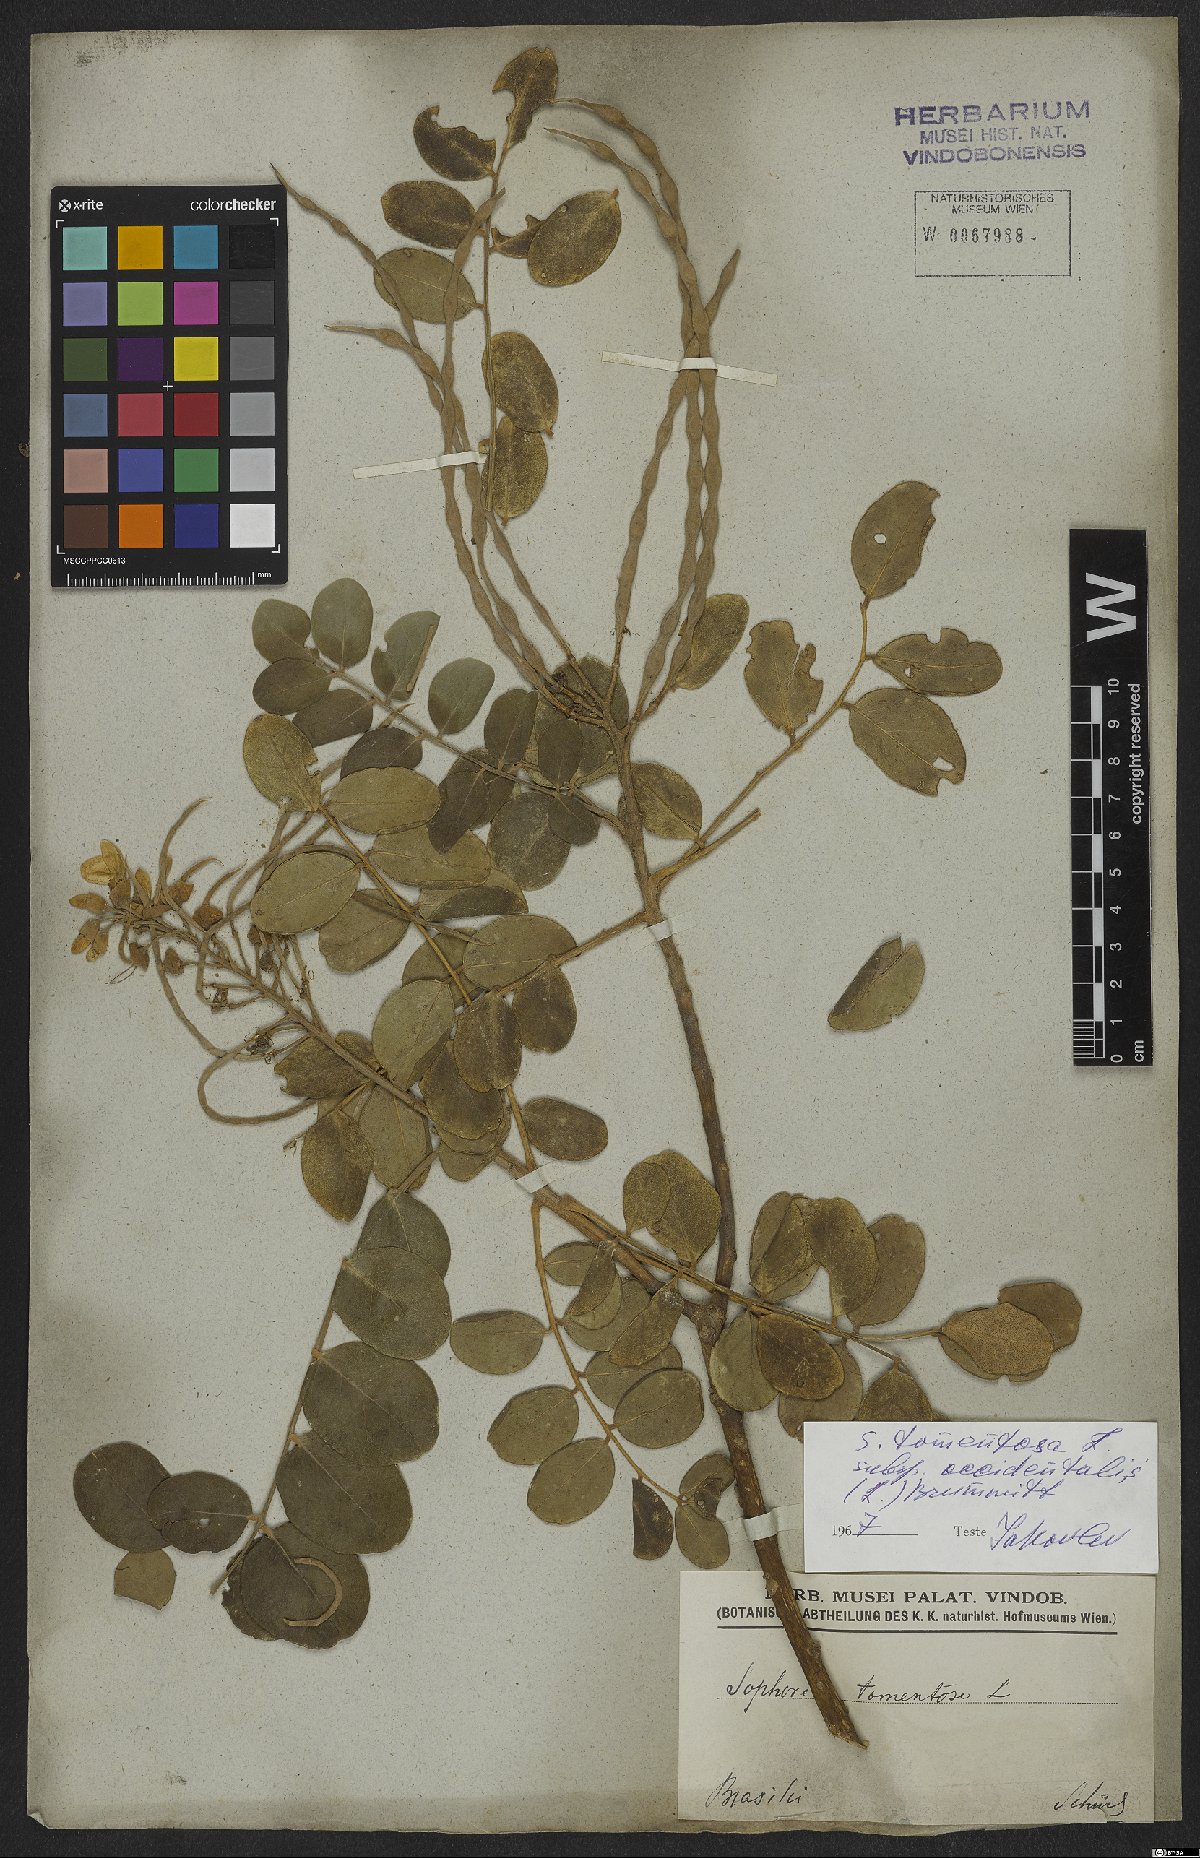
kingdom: Plantae
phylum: Tracheophyta
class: Magnoliopsida
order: Fabales
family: Fabaceae
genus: Sophora
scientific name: Sophora tomentosa
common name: Yellow necklacepod
